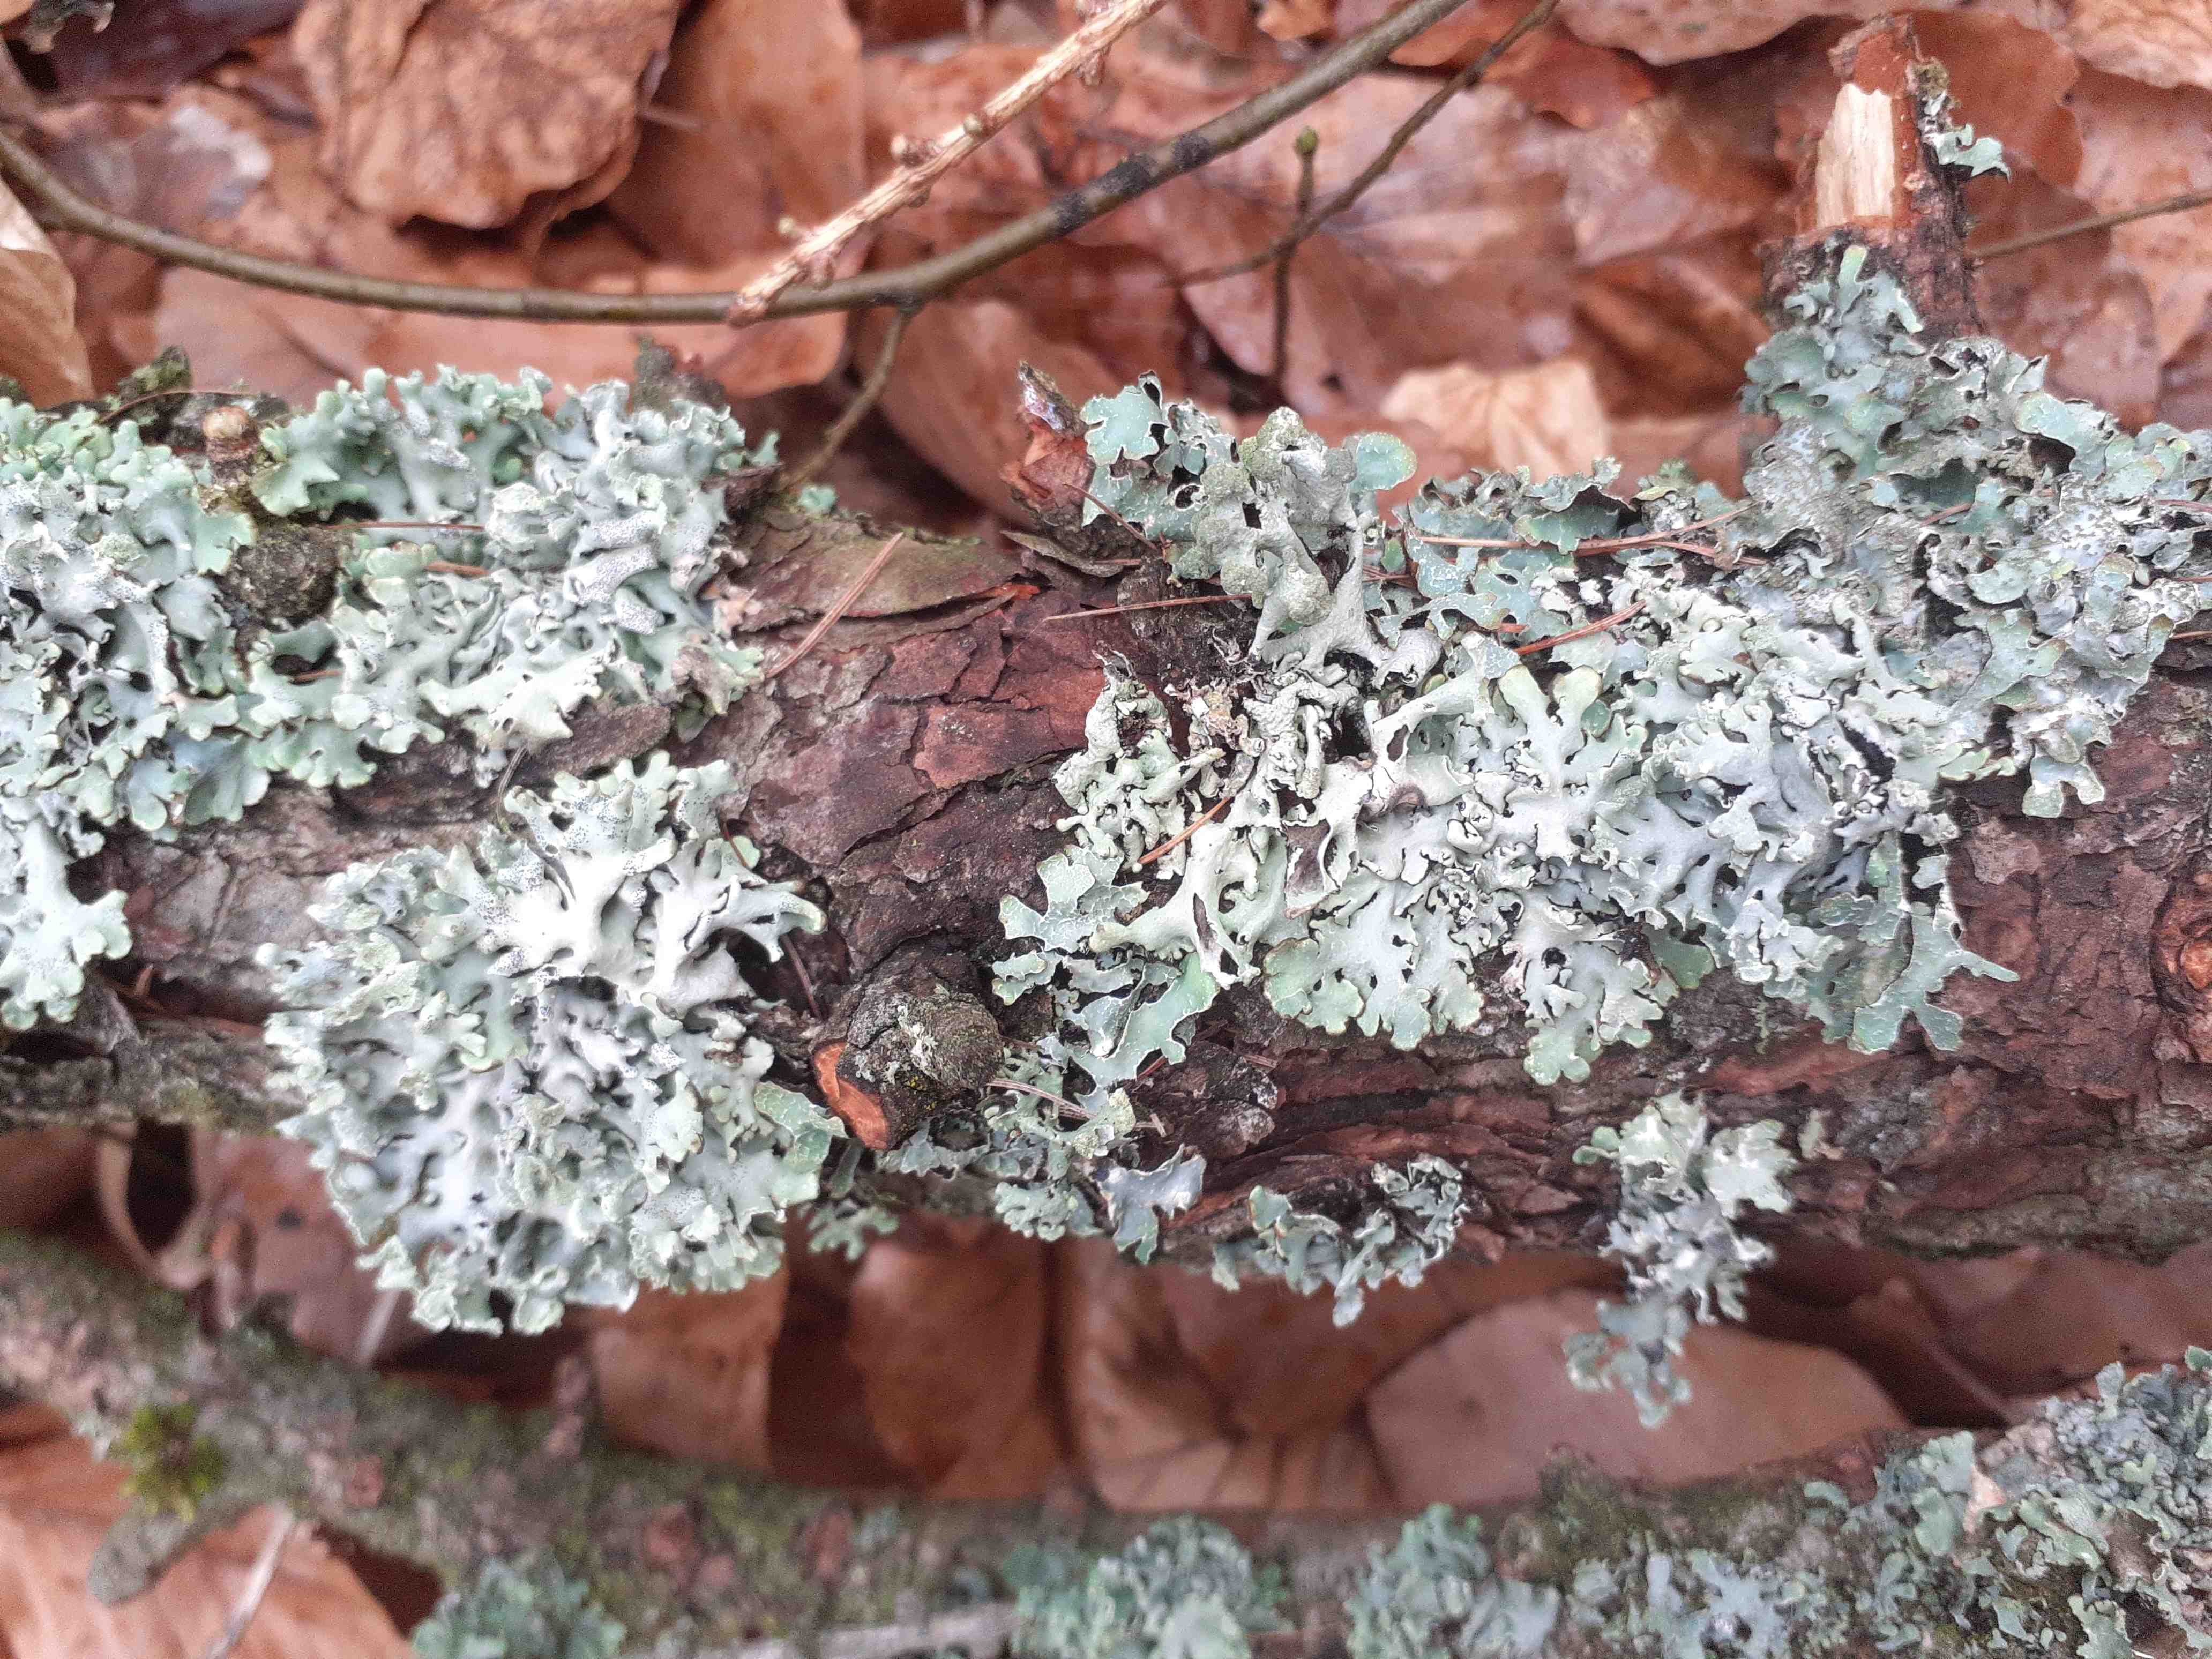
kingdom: Fungi
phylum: Ascomycota
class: Lecanoromycetes
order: Lecanorales
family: Parmeliaceae
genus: Hypogymnia
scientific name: Hypogymnia physodes
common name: almindelig kvistlav
